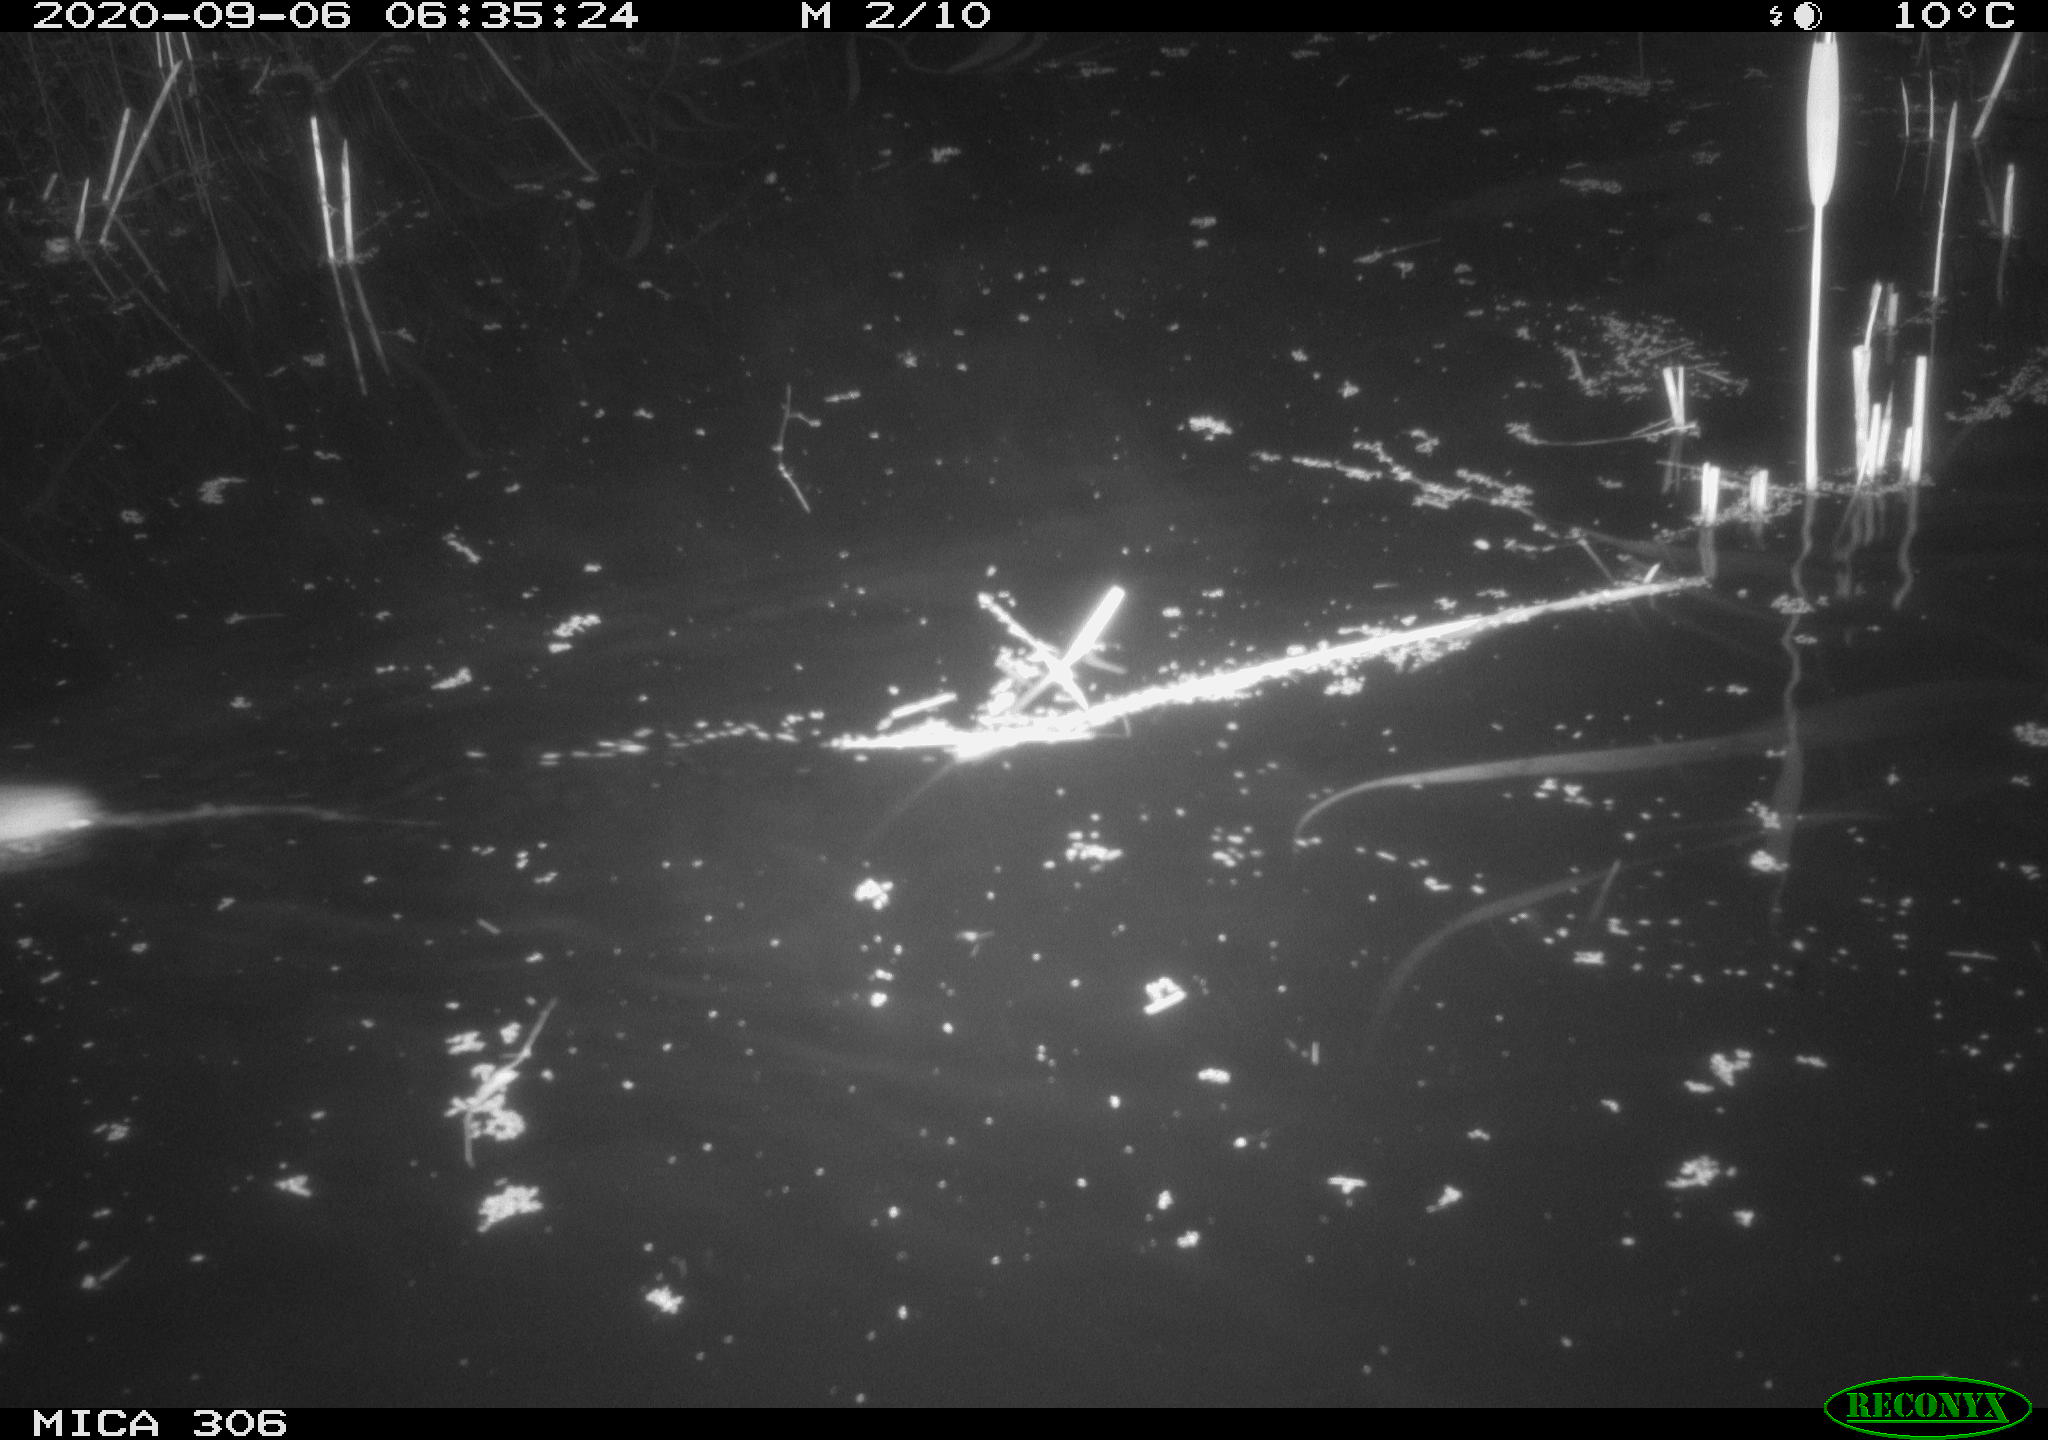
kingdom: Animalia
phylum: Chordata
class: Mammalia
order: Rodentia
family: Muridae
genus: Rattus
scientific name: Rattus norvegicus
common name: Brown rat
